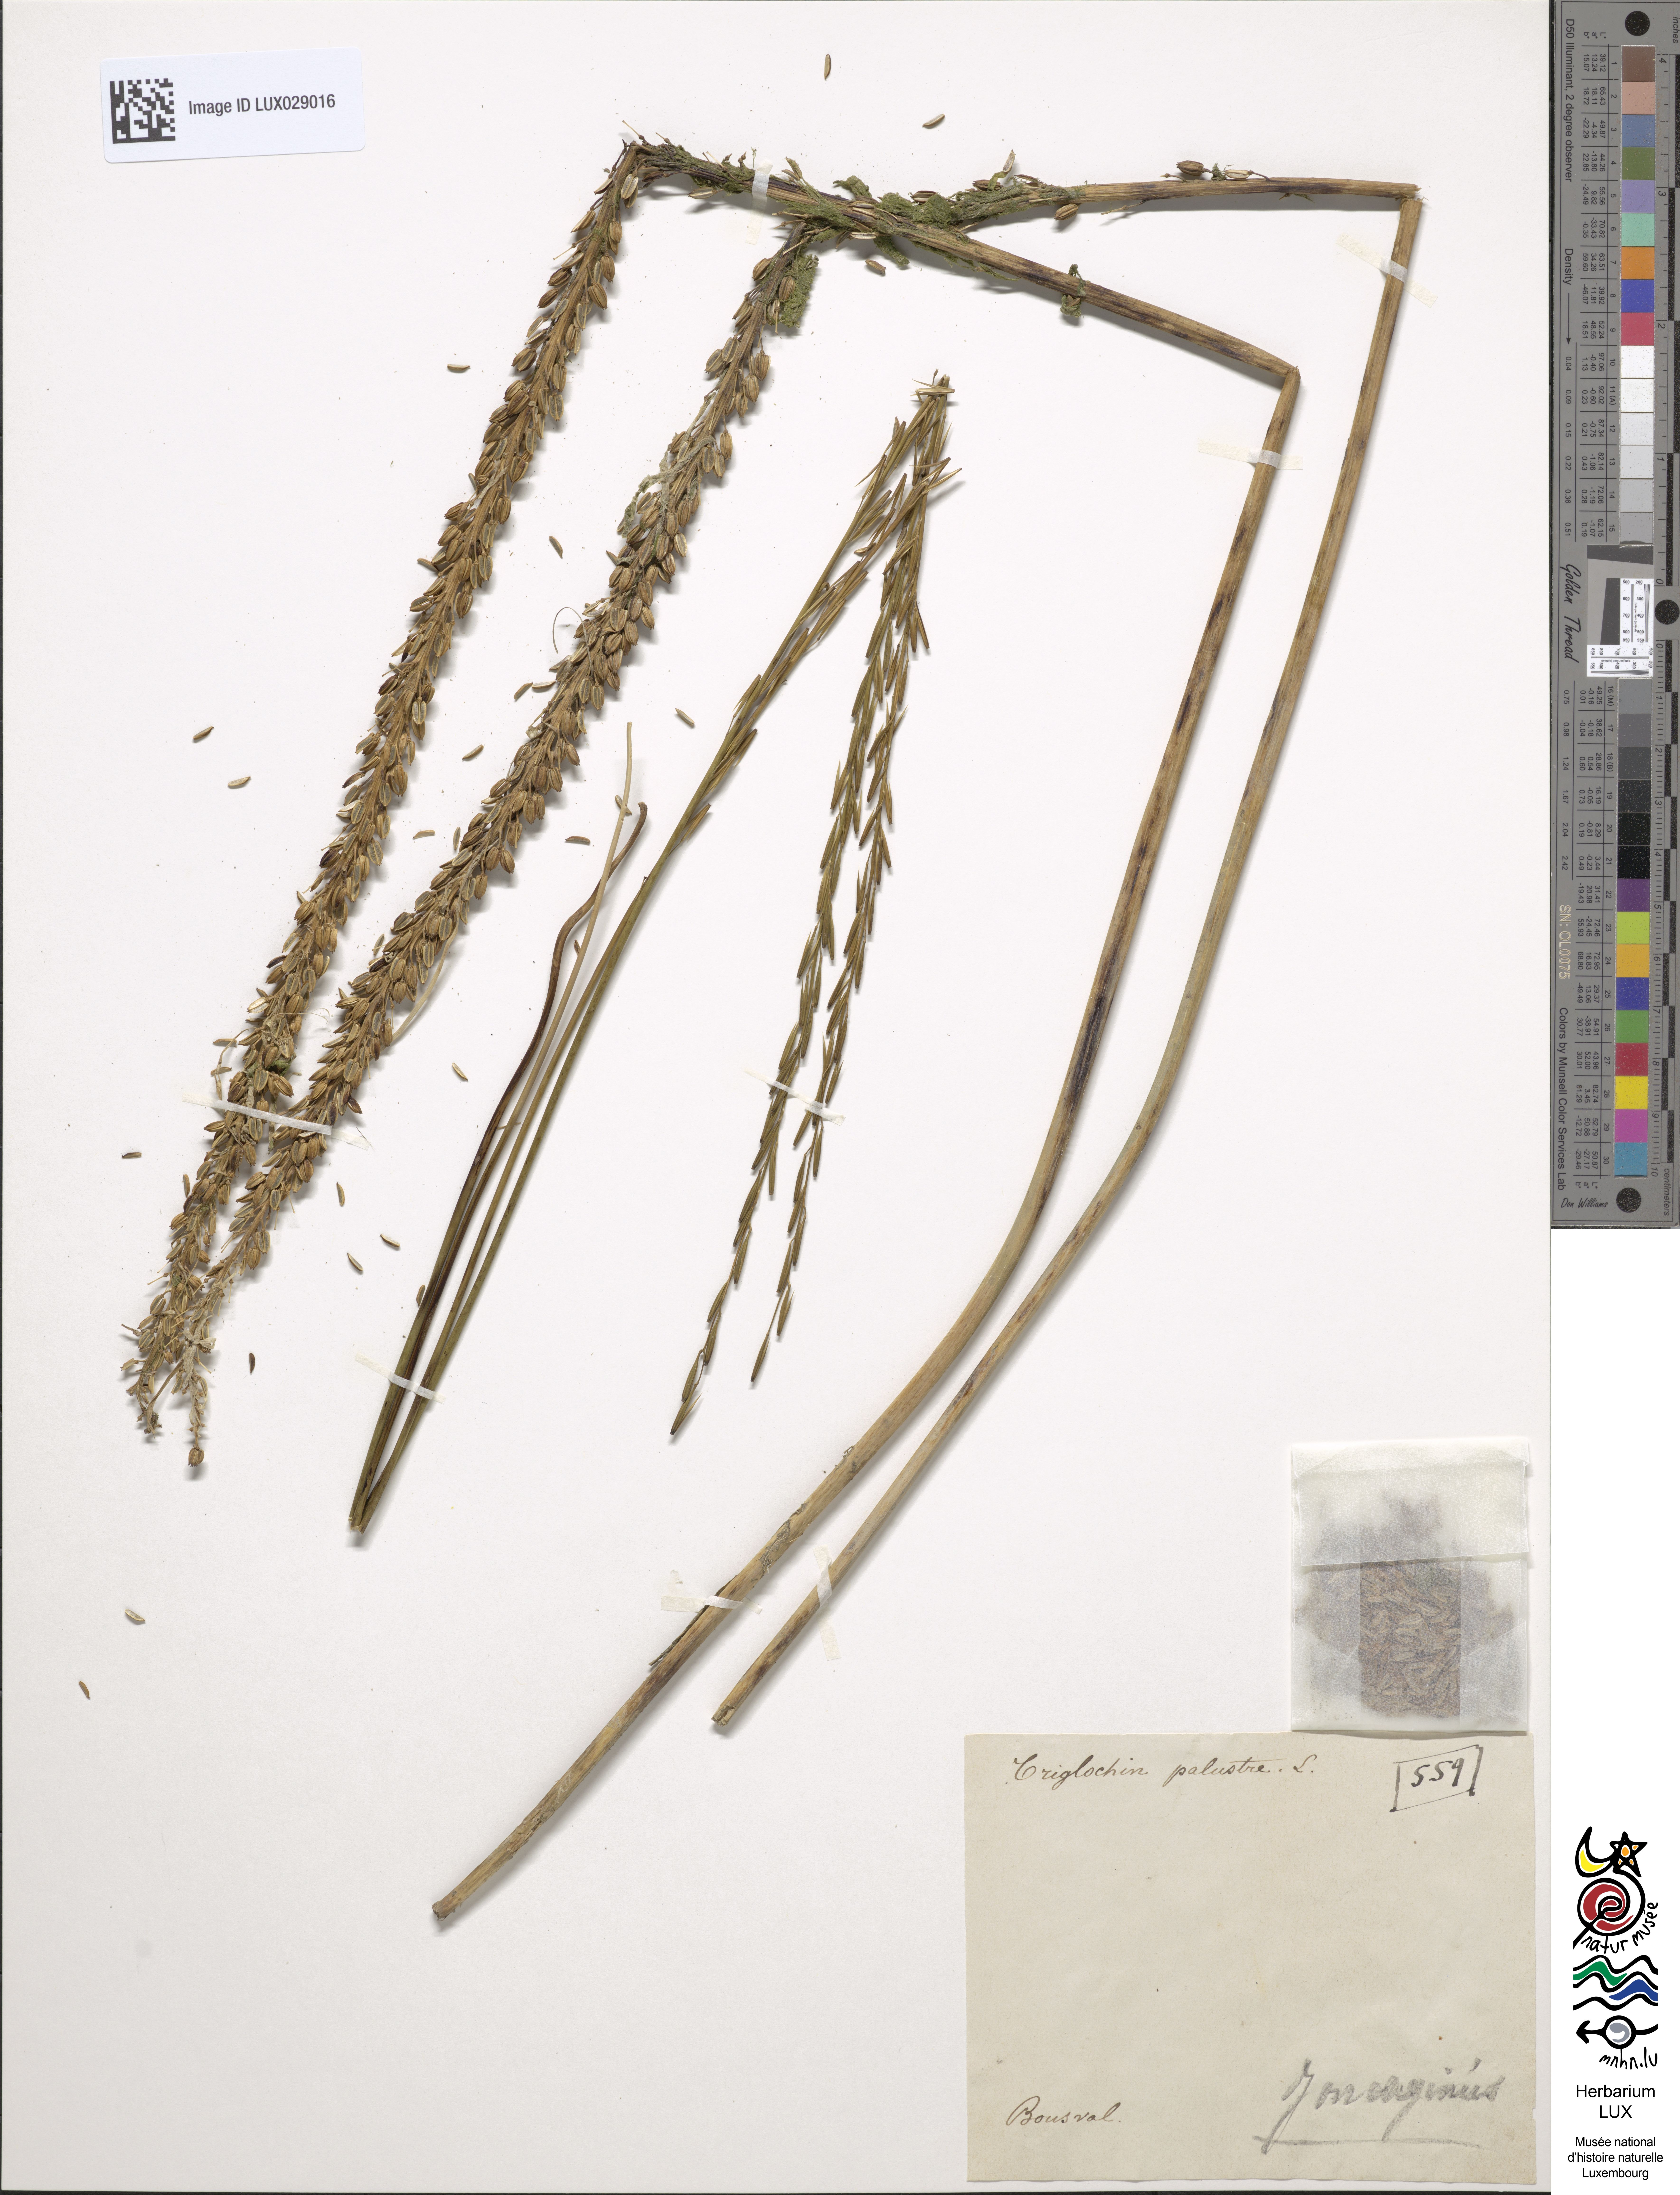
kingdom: Plantae
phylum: Tracheophyta
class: Liliopsida
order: Alismatales
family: Juncaginaceae
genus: Triglochin
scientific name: Triglochin palustris
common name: Marsh arrowgrass
